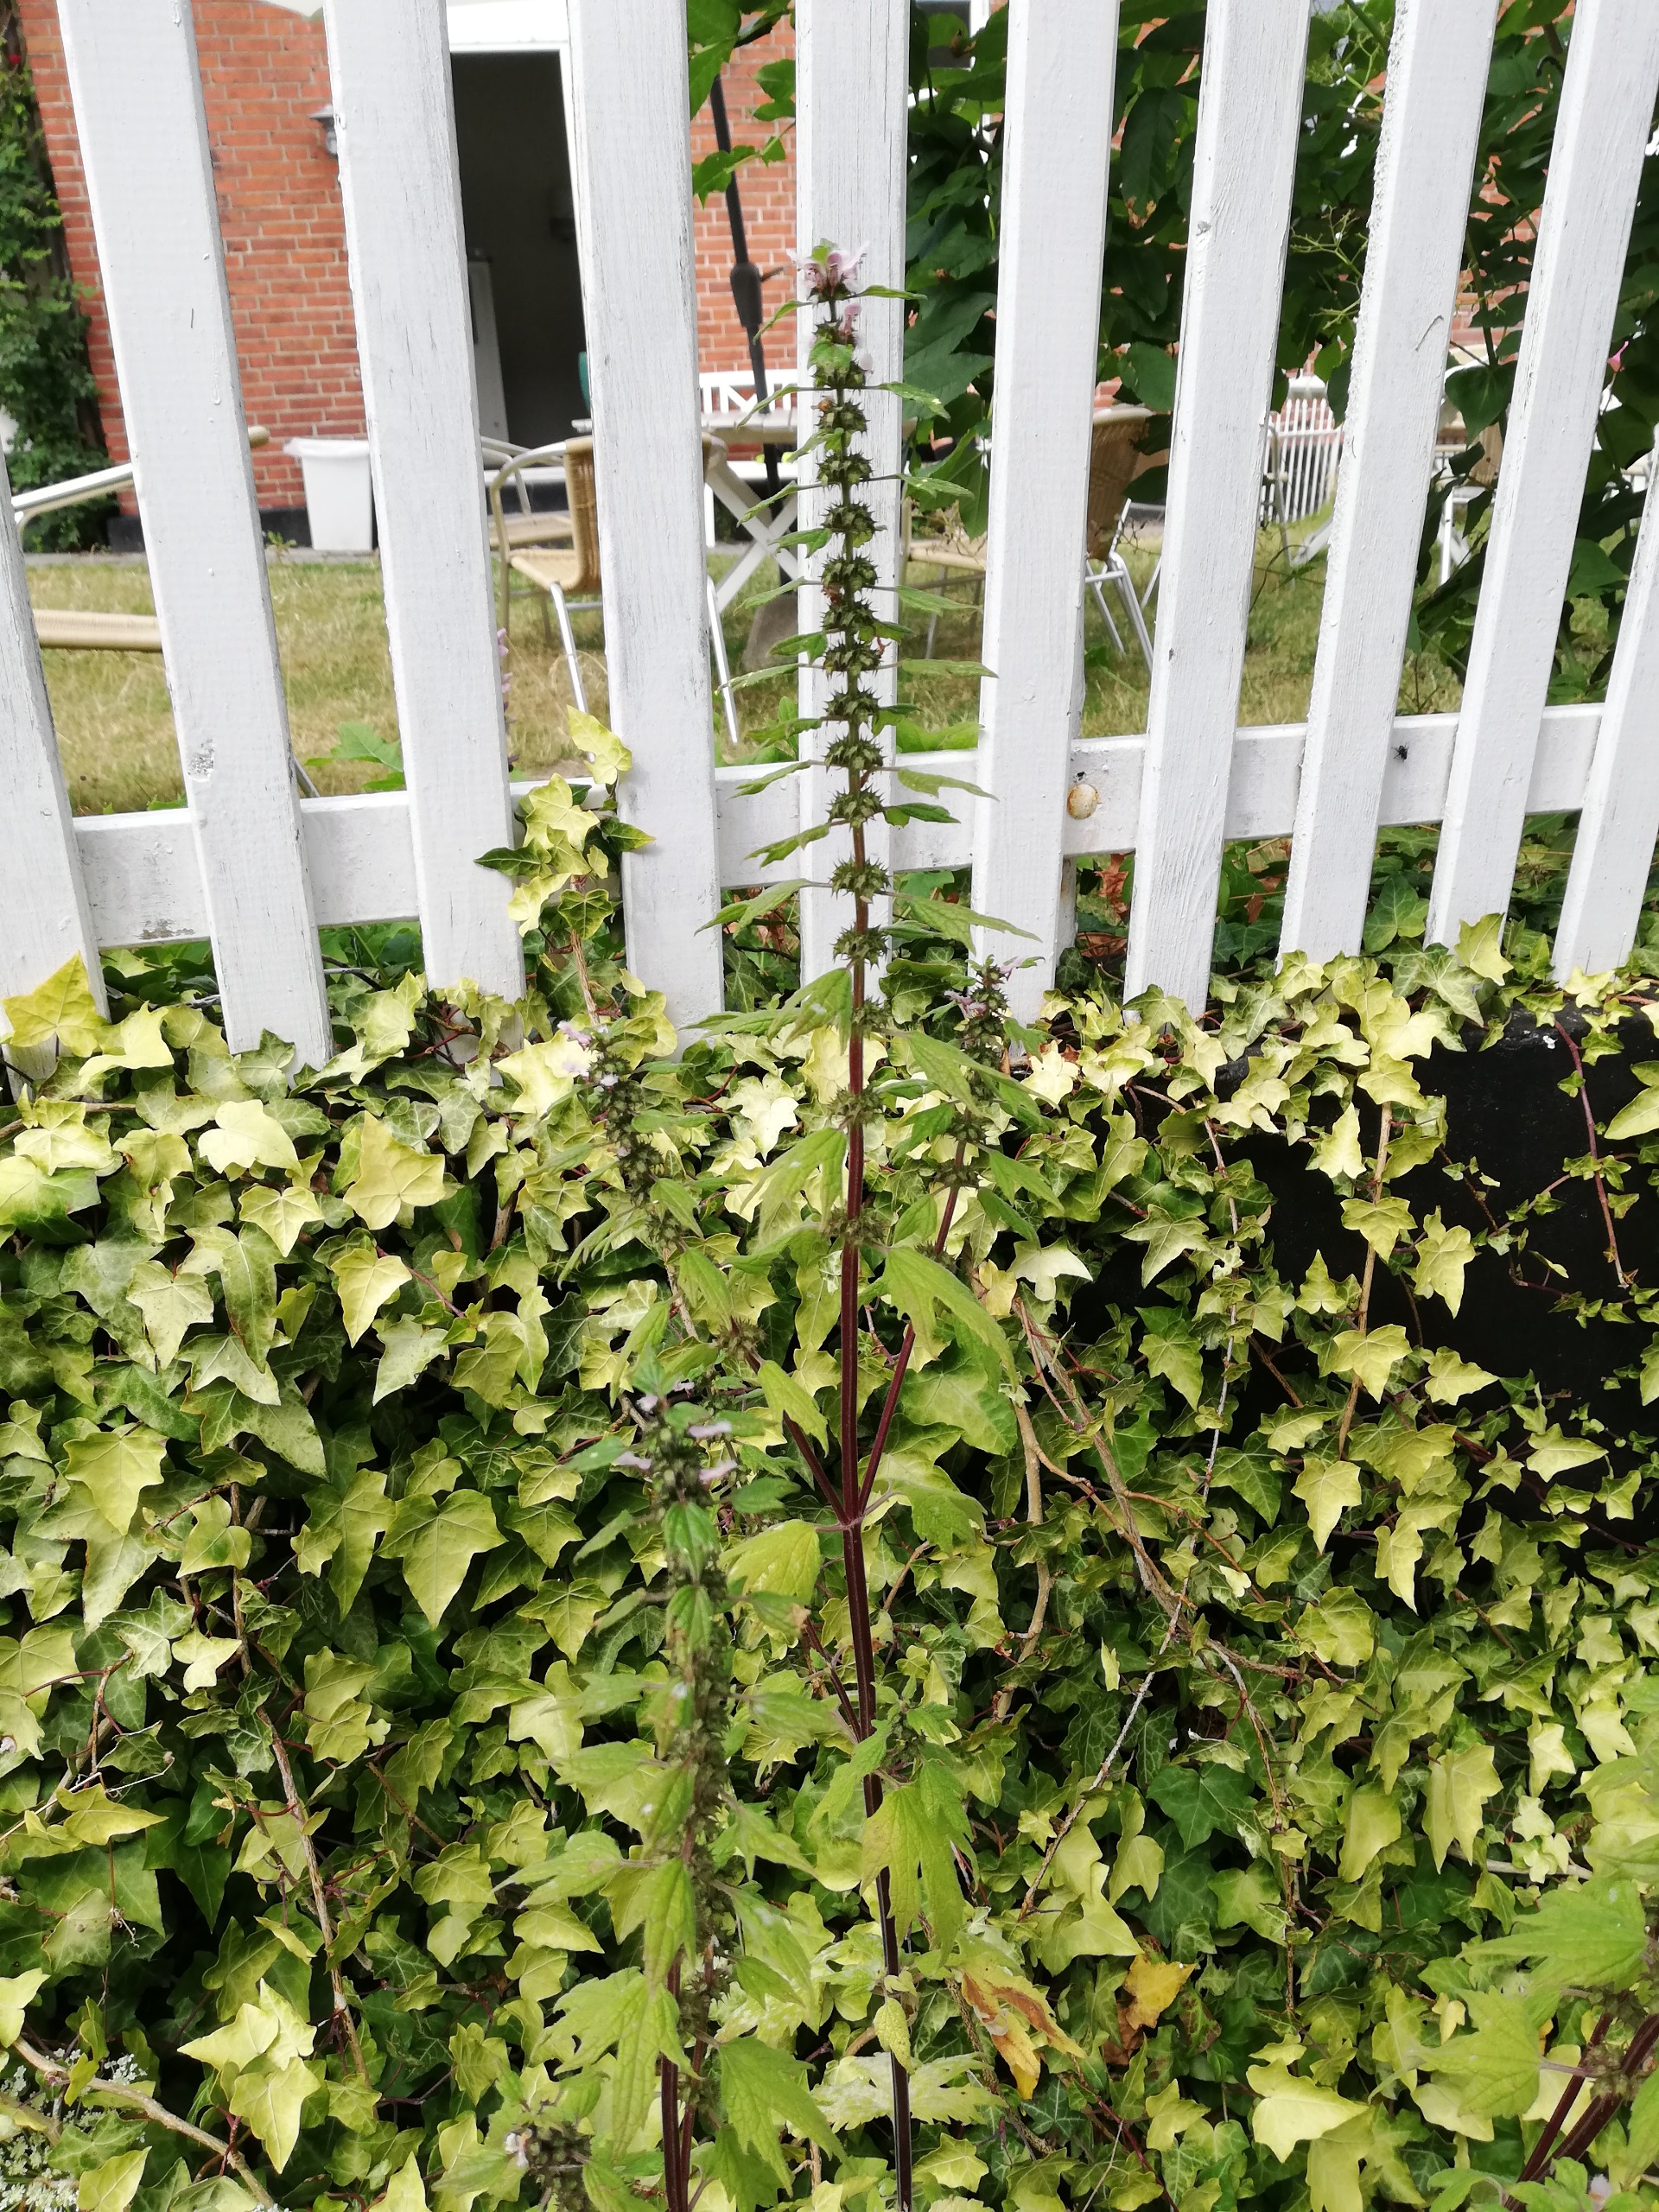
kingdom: Plantae
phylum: Tracheophyta
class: Magnoliopsida
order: Lamiales
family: Lamiaceae
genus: Leonurus
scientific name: Leonurus cardiaca
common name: Hjertespand
